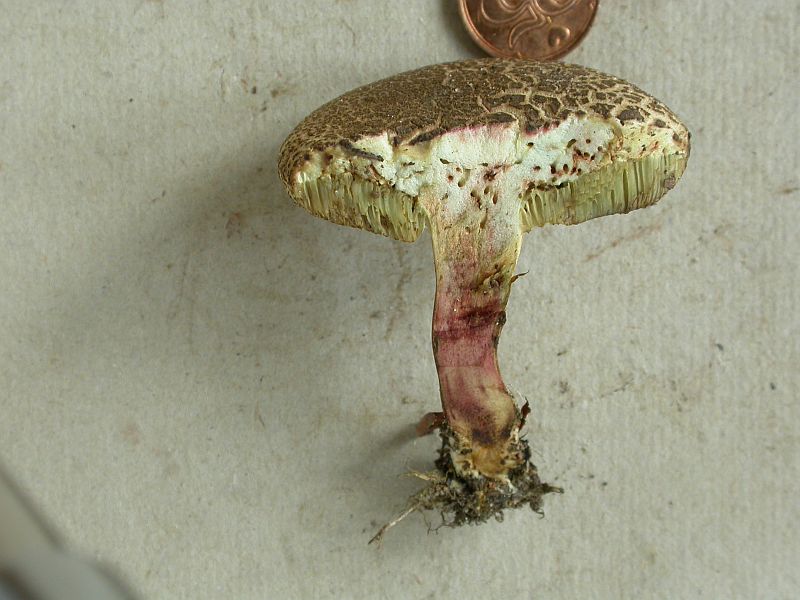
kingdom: Fungi
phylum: Basidiomycota
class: Agaricomycetes
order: Boletales
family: Boletaceae
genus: Xerocomellus
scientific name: Xerocomellus chrysenteron
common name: rødsprukken rørhat
